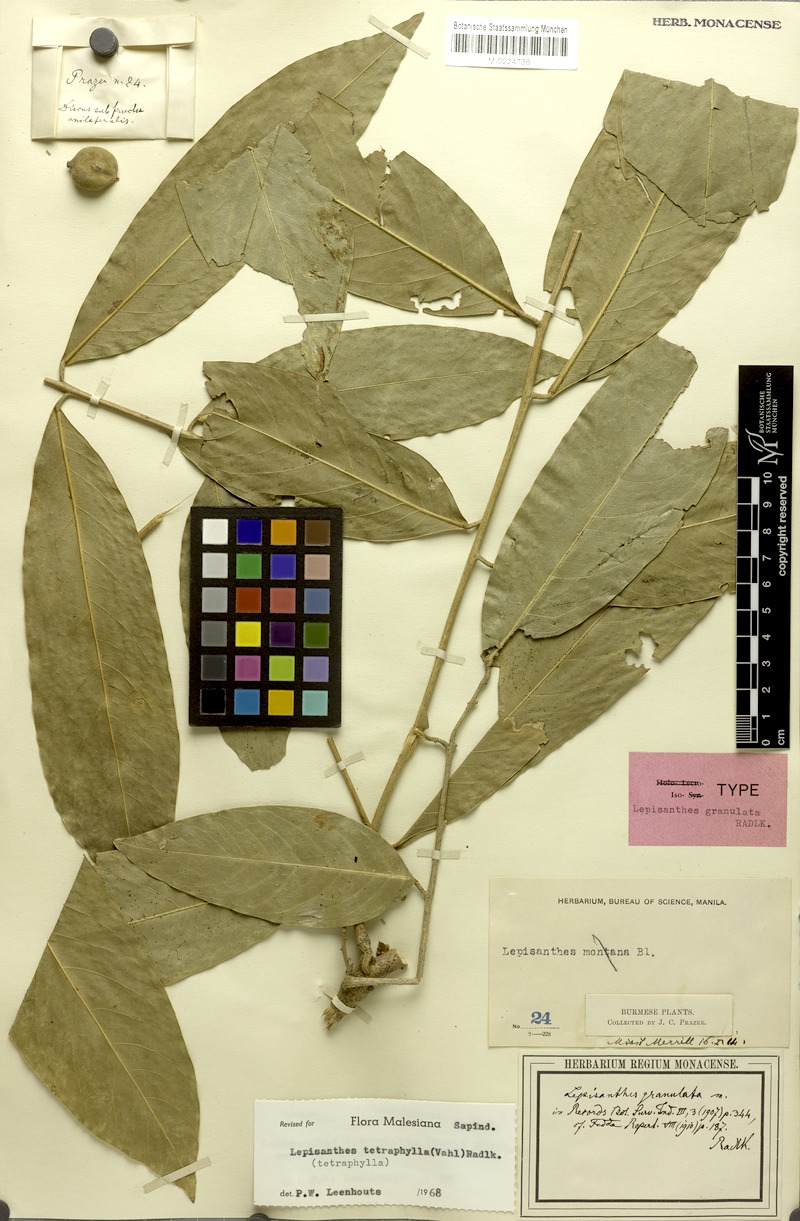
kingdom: Plantae
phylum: Tracheophyta
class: Magnoliopsida
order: Sapindales
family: Sapindaceae
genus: Lepisanthes
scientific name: Lepisanthes tetraphylla
